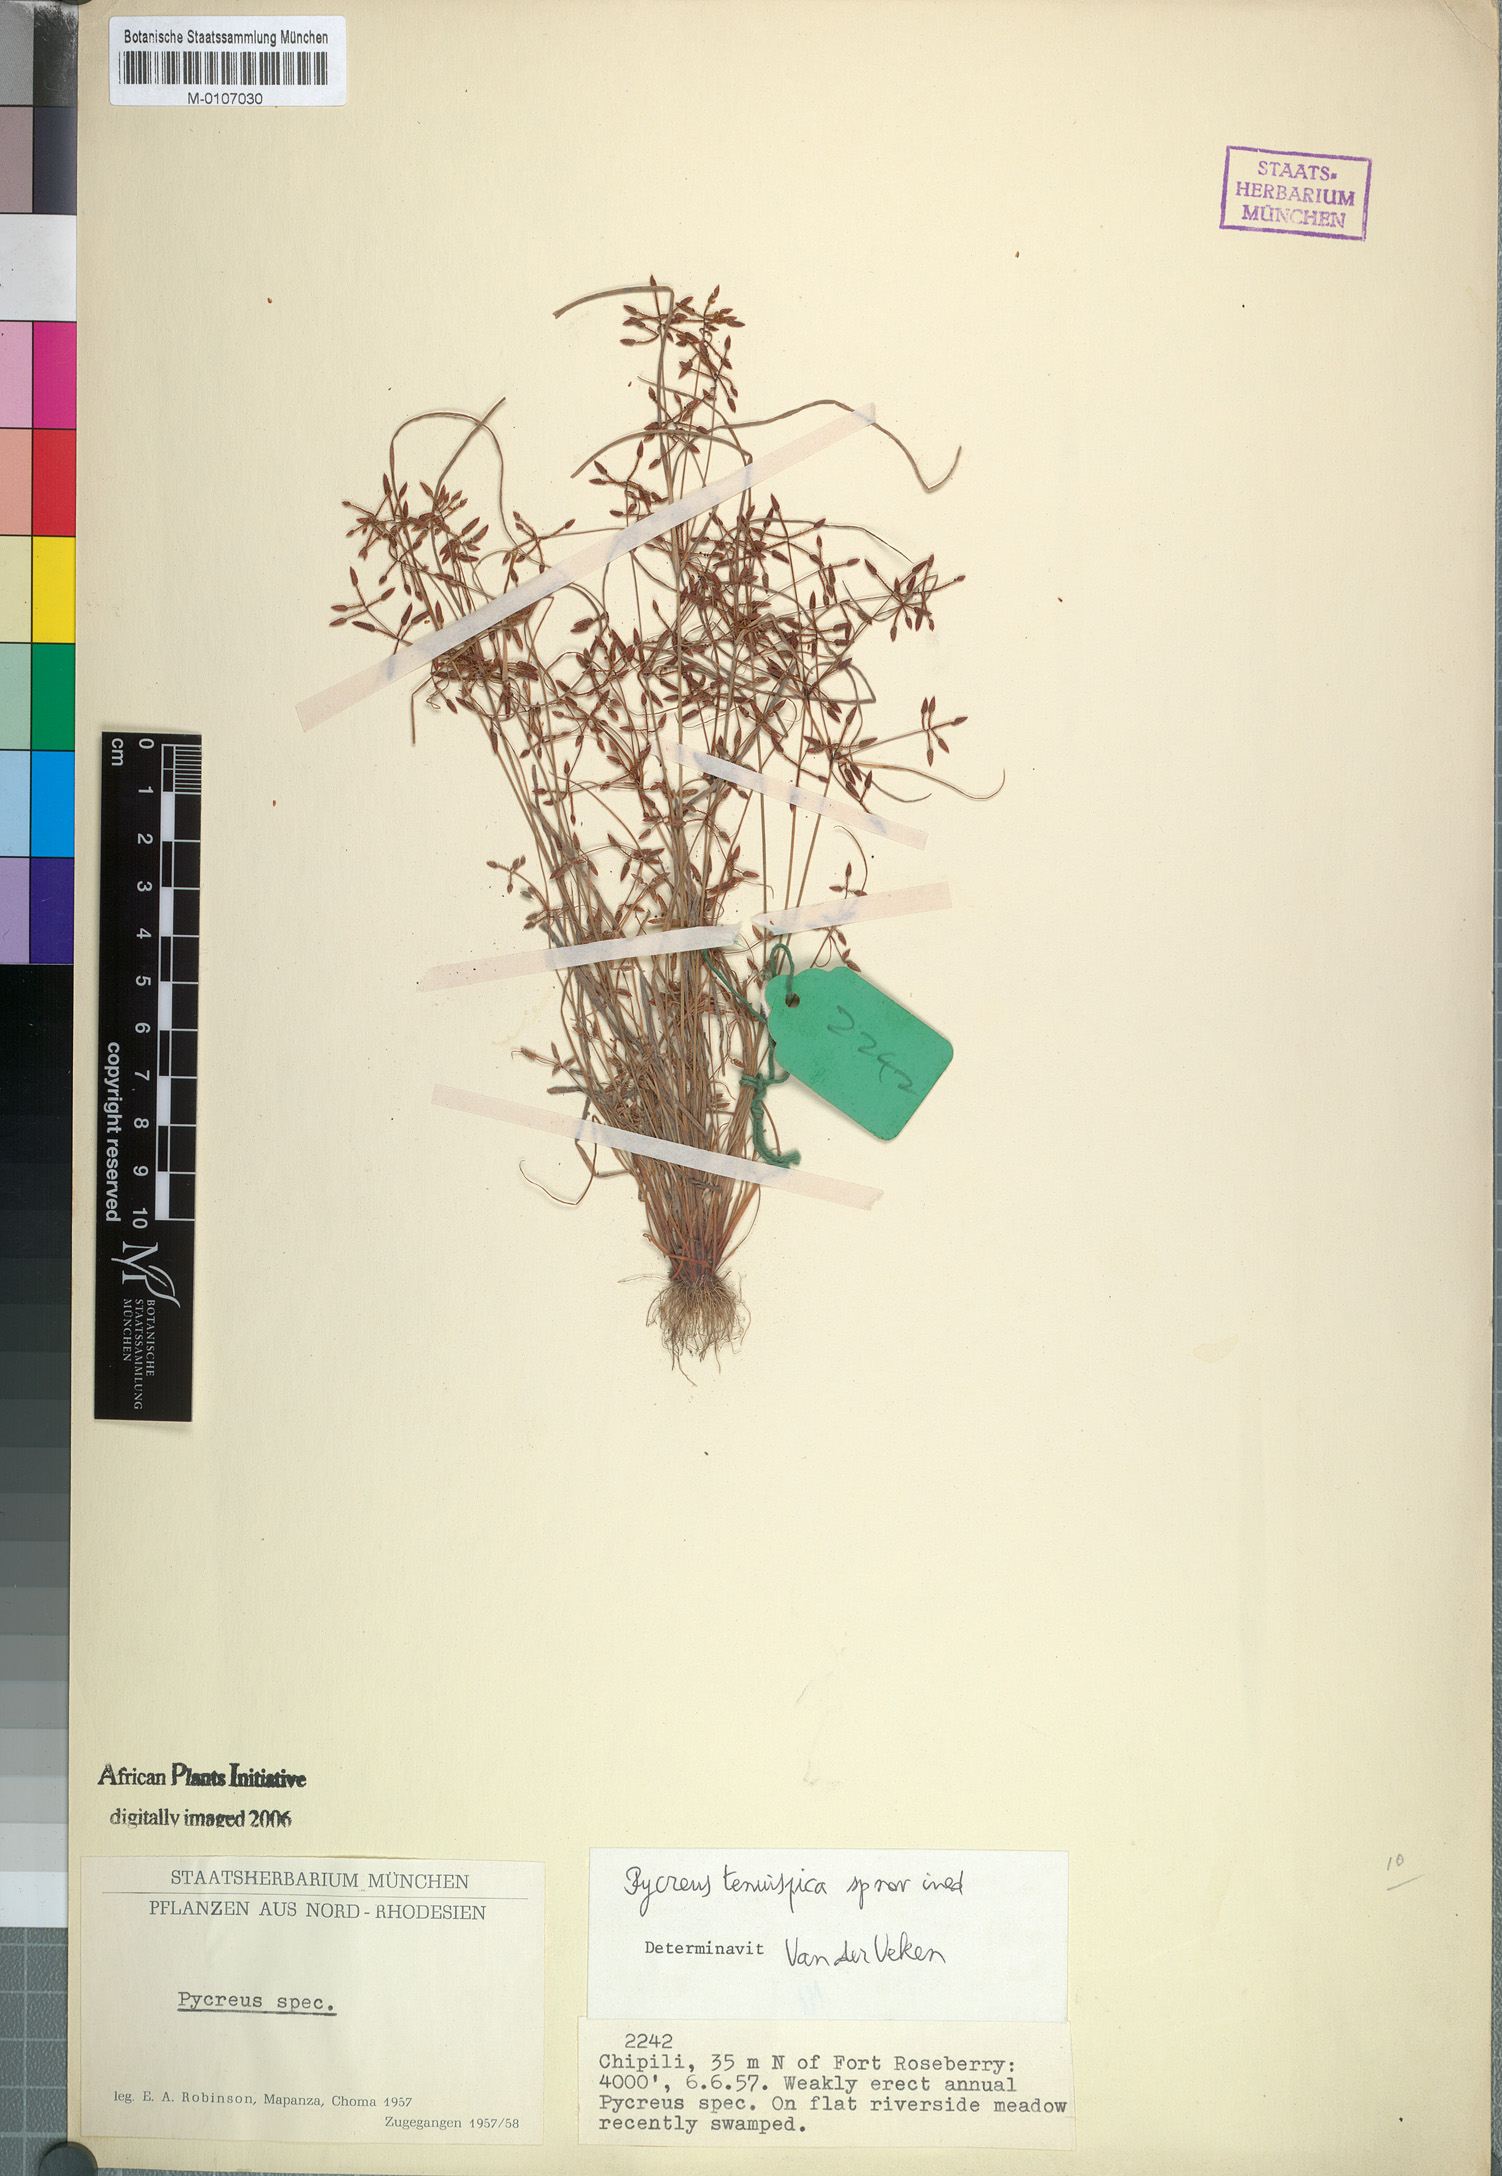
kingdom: Plantae
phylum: Tracheophyta
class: Liliopsida
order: Poales
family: Cyperaceae
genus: Cyperus
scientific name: Cyperus tenuispica
